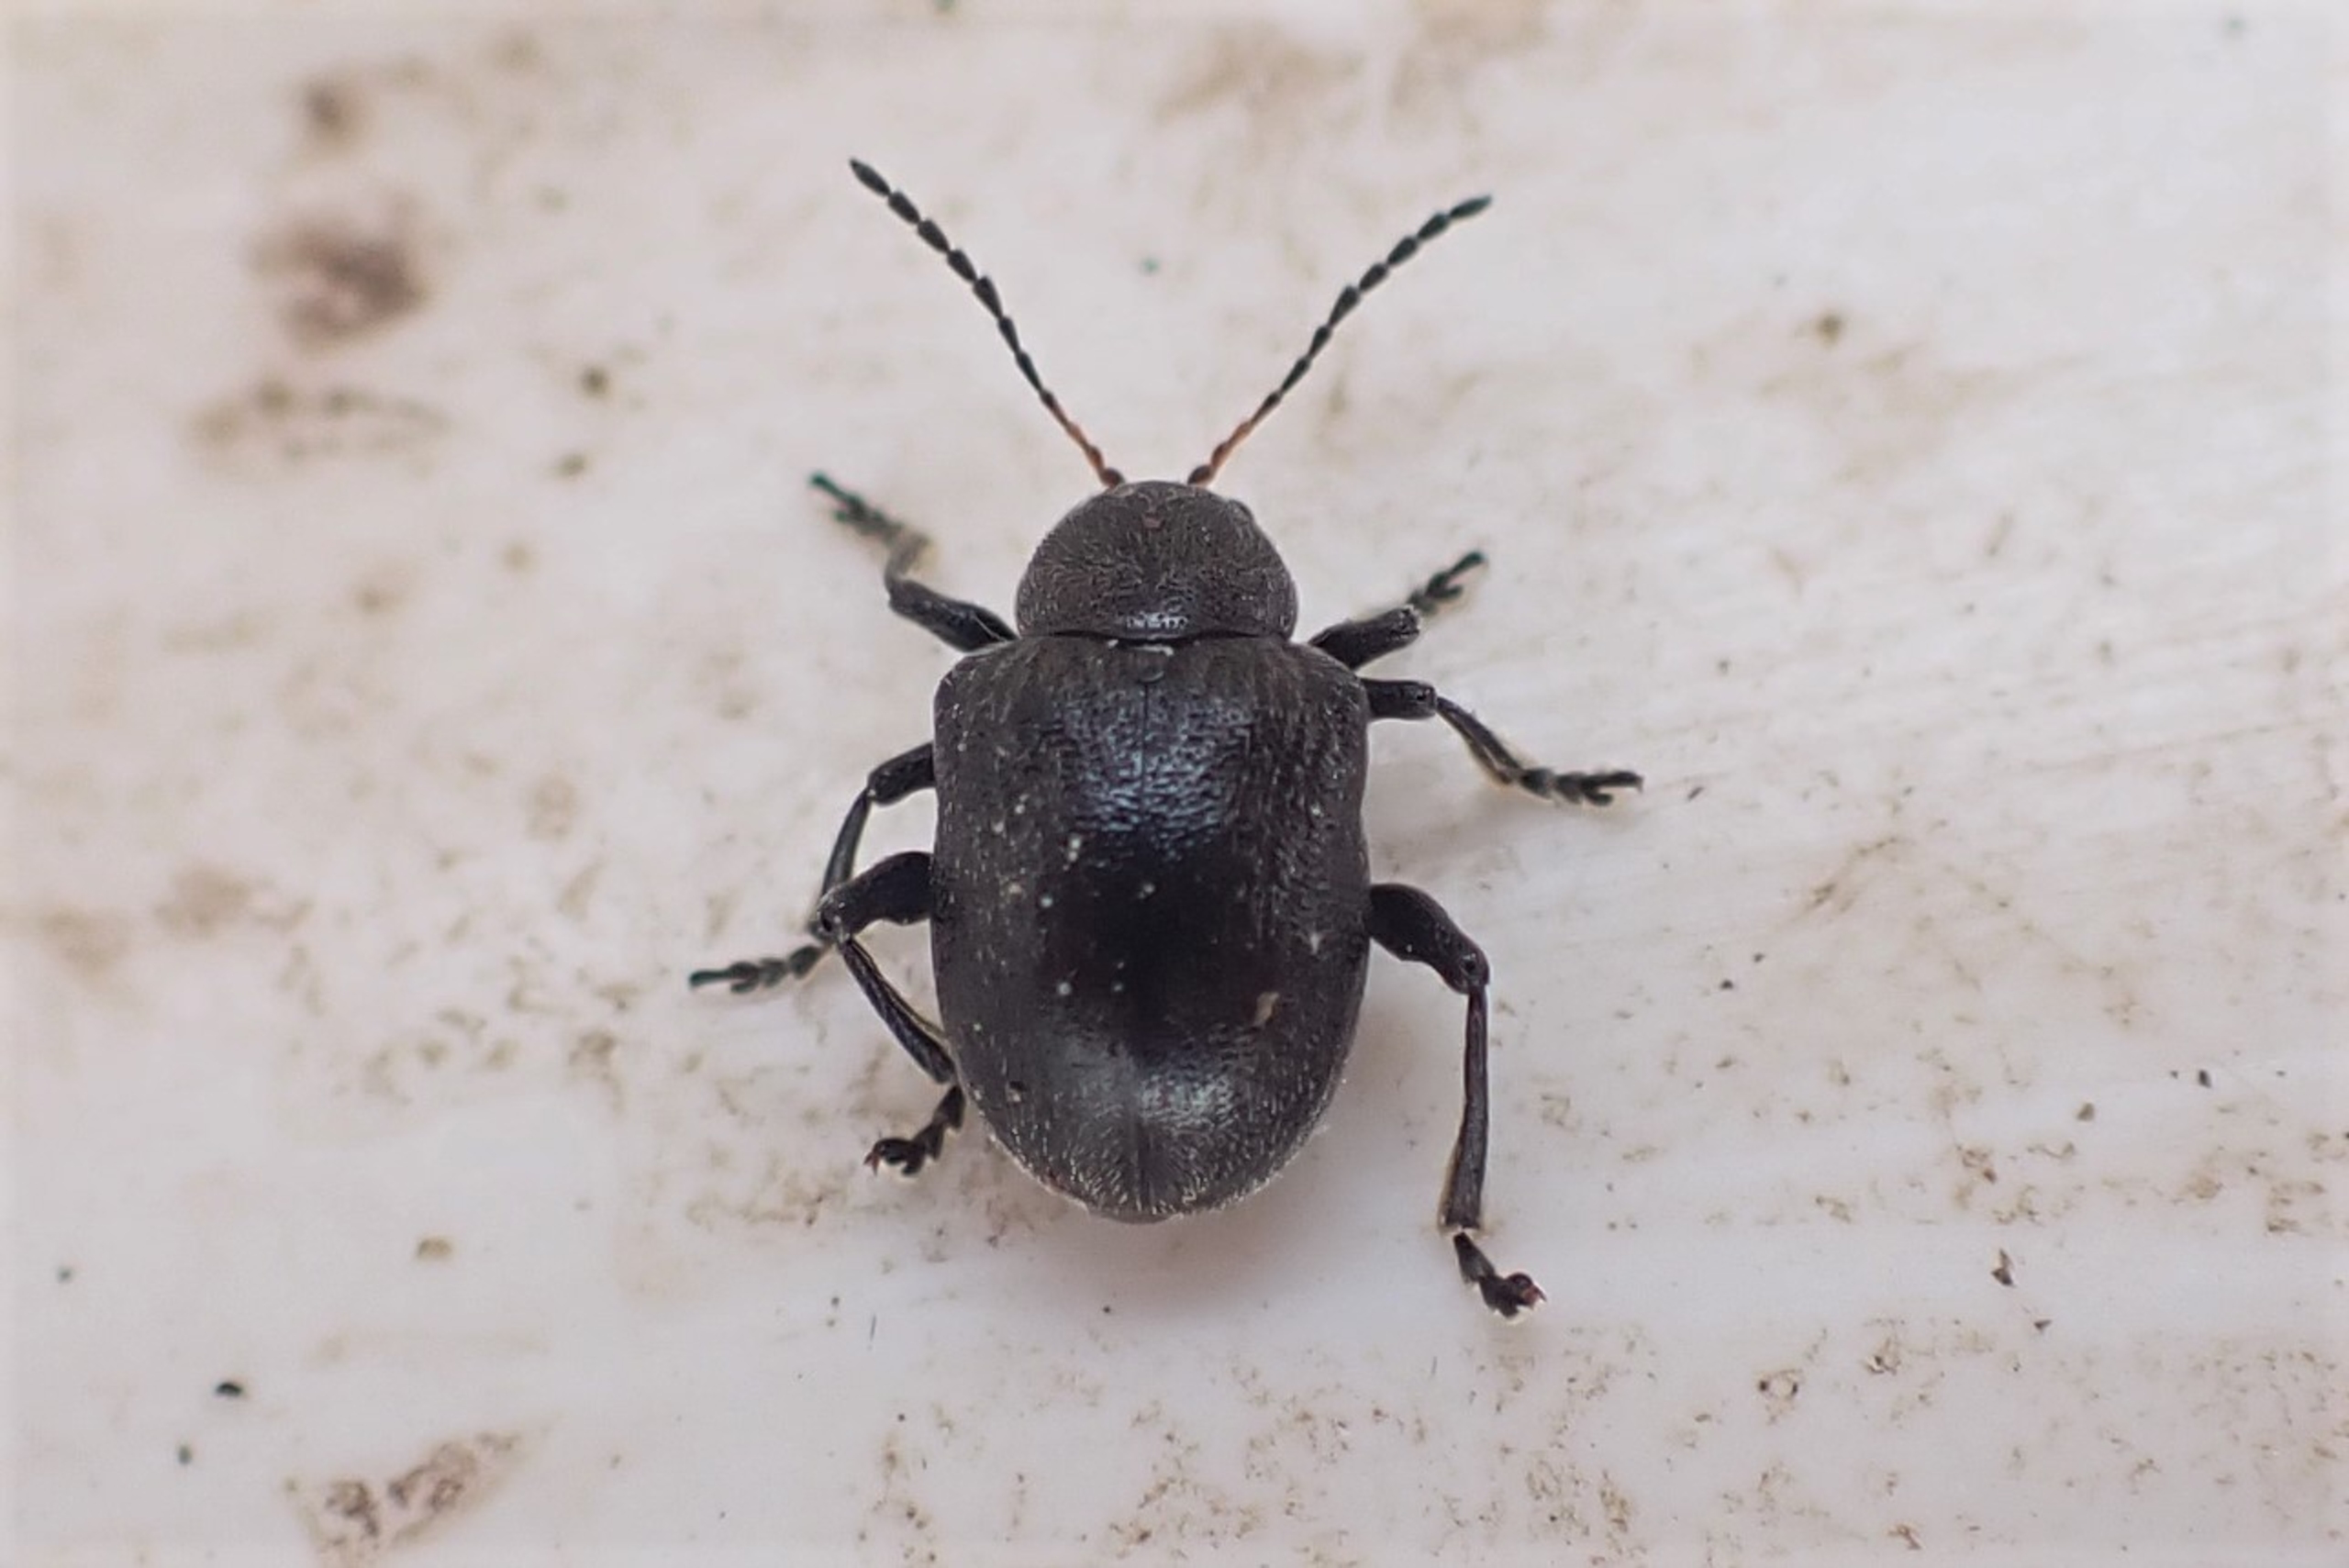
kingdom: Animalia
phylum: Arthropoda
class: Insecta
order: Coleoptera
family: Chrysomelidae
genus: Bromius
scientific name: Bromius obscurus
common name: Gederamsbille
